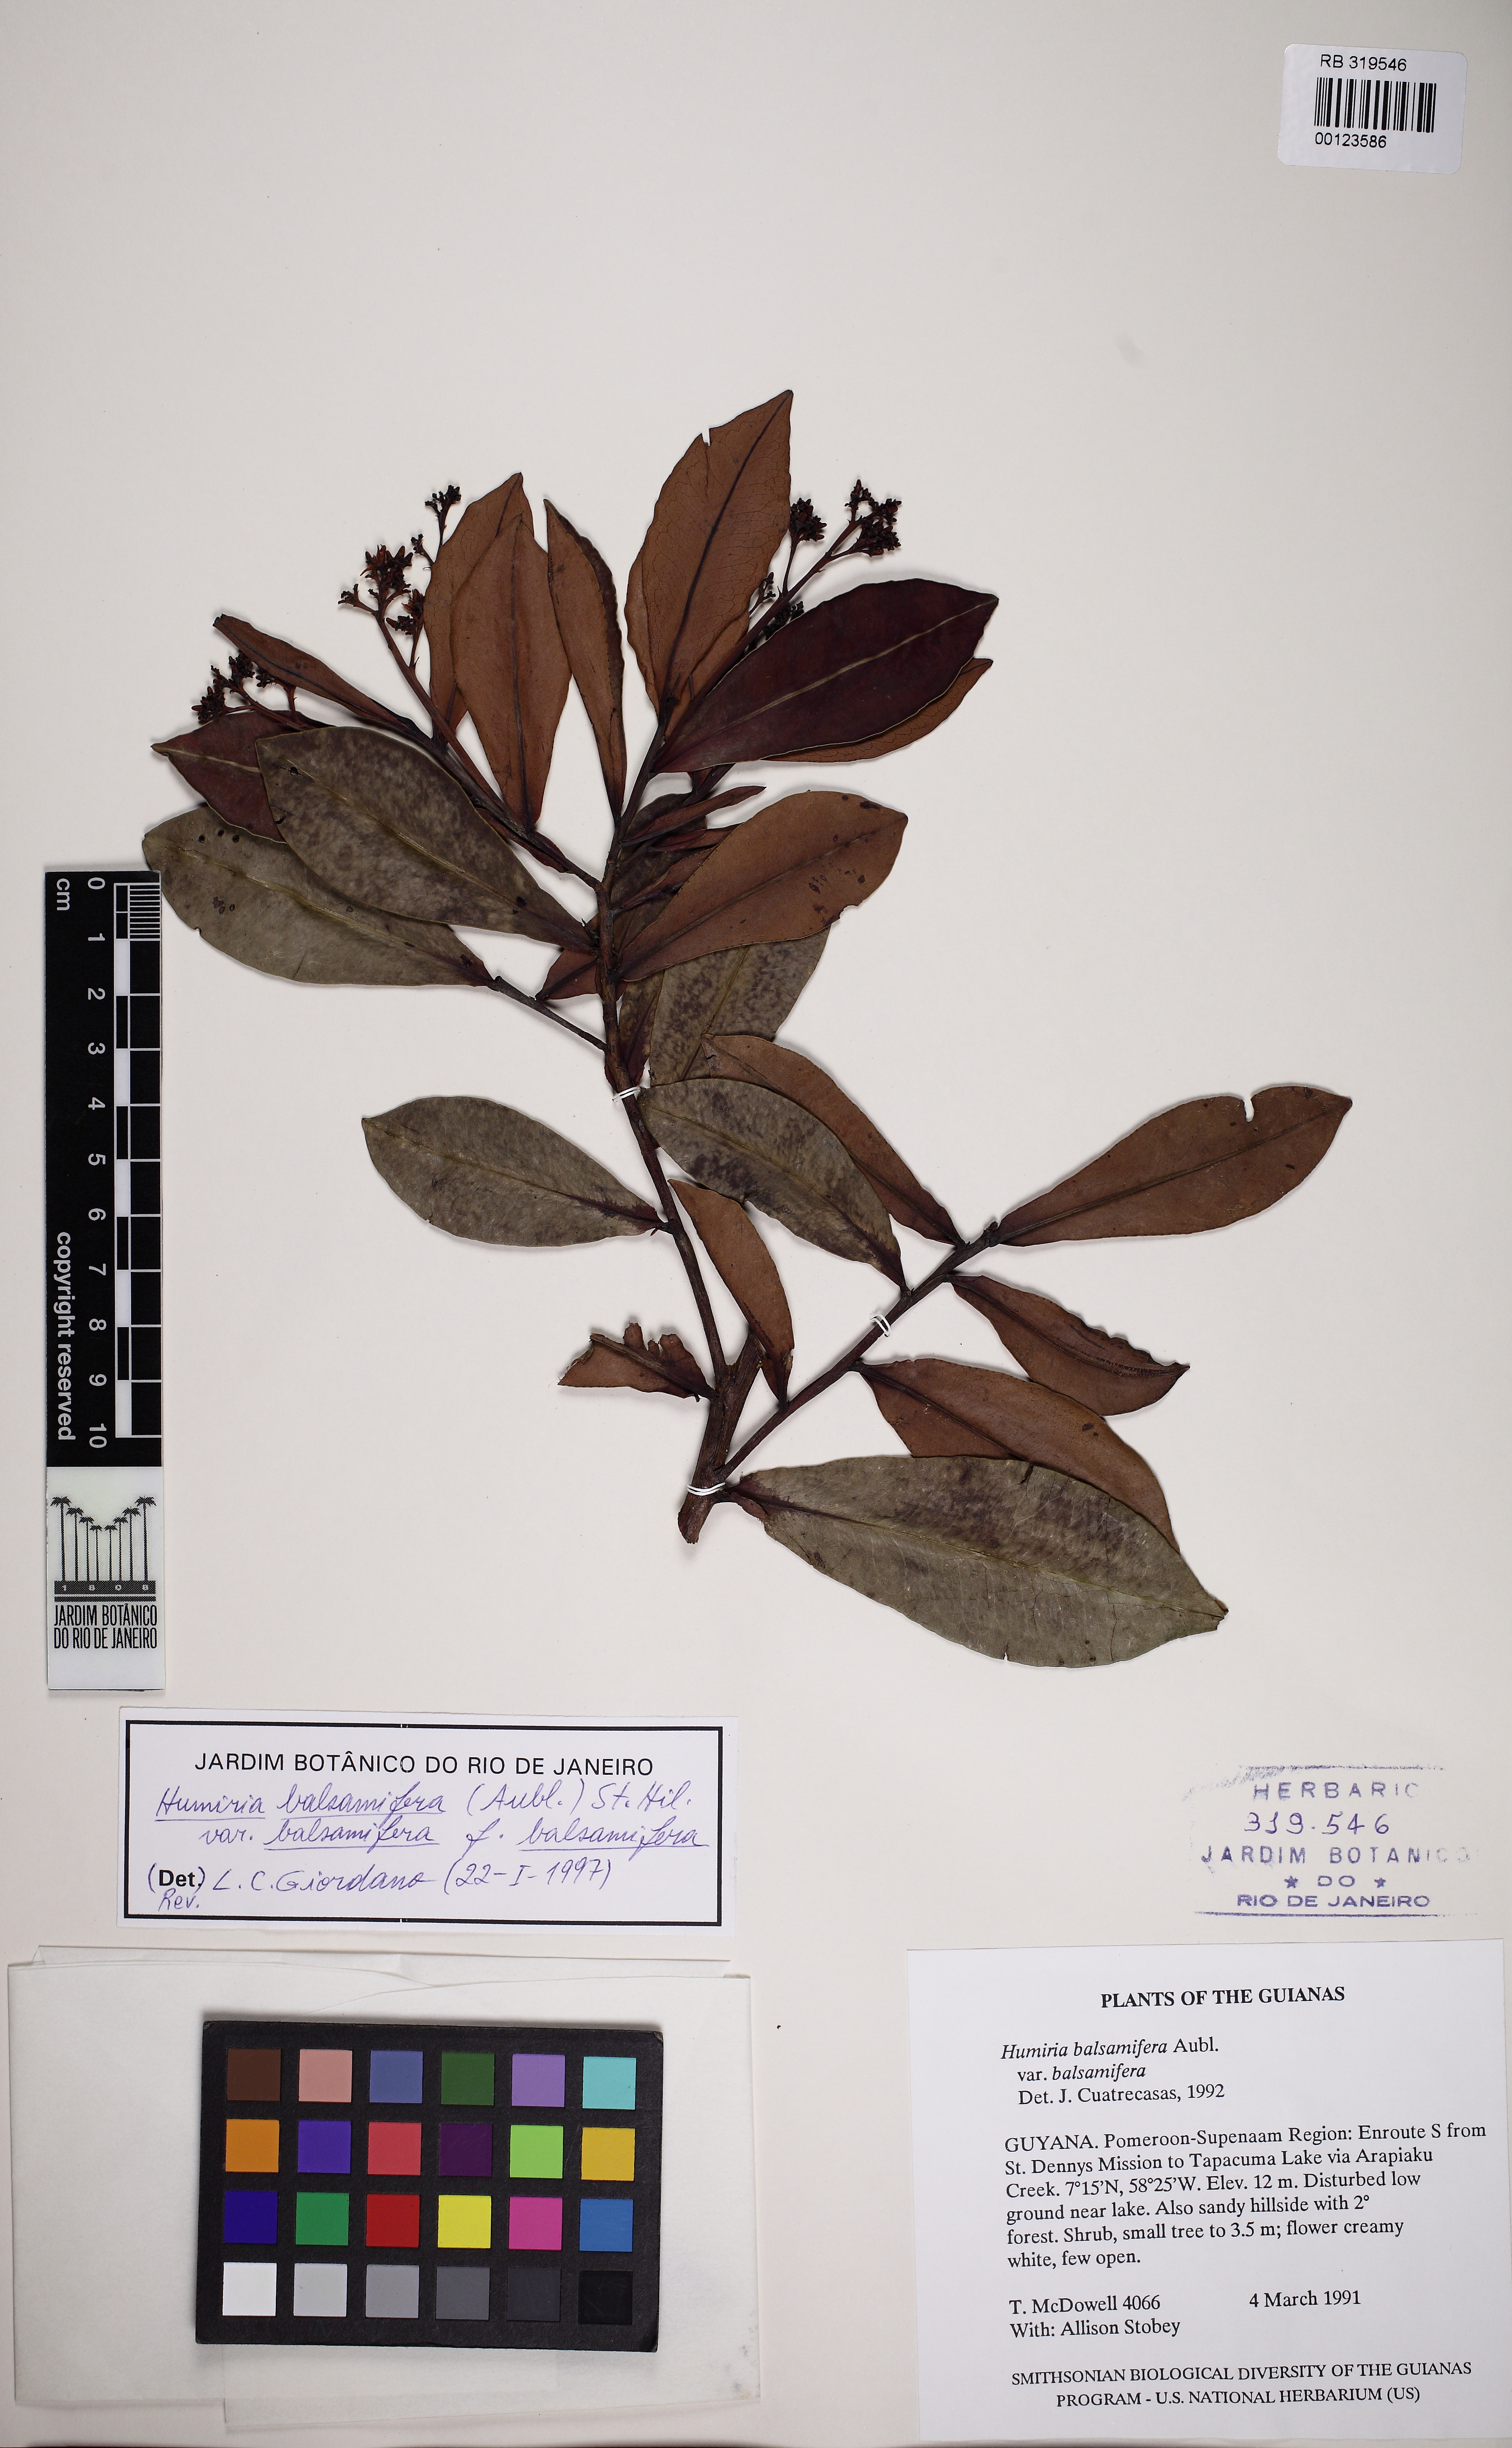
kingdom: Plantae
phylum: Tracheophyta
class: Magnoliopsida
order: Malpighiales
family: Humiriaceae
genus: Humiria
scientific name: Humiria balsamifera
